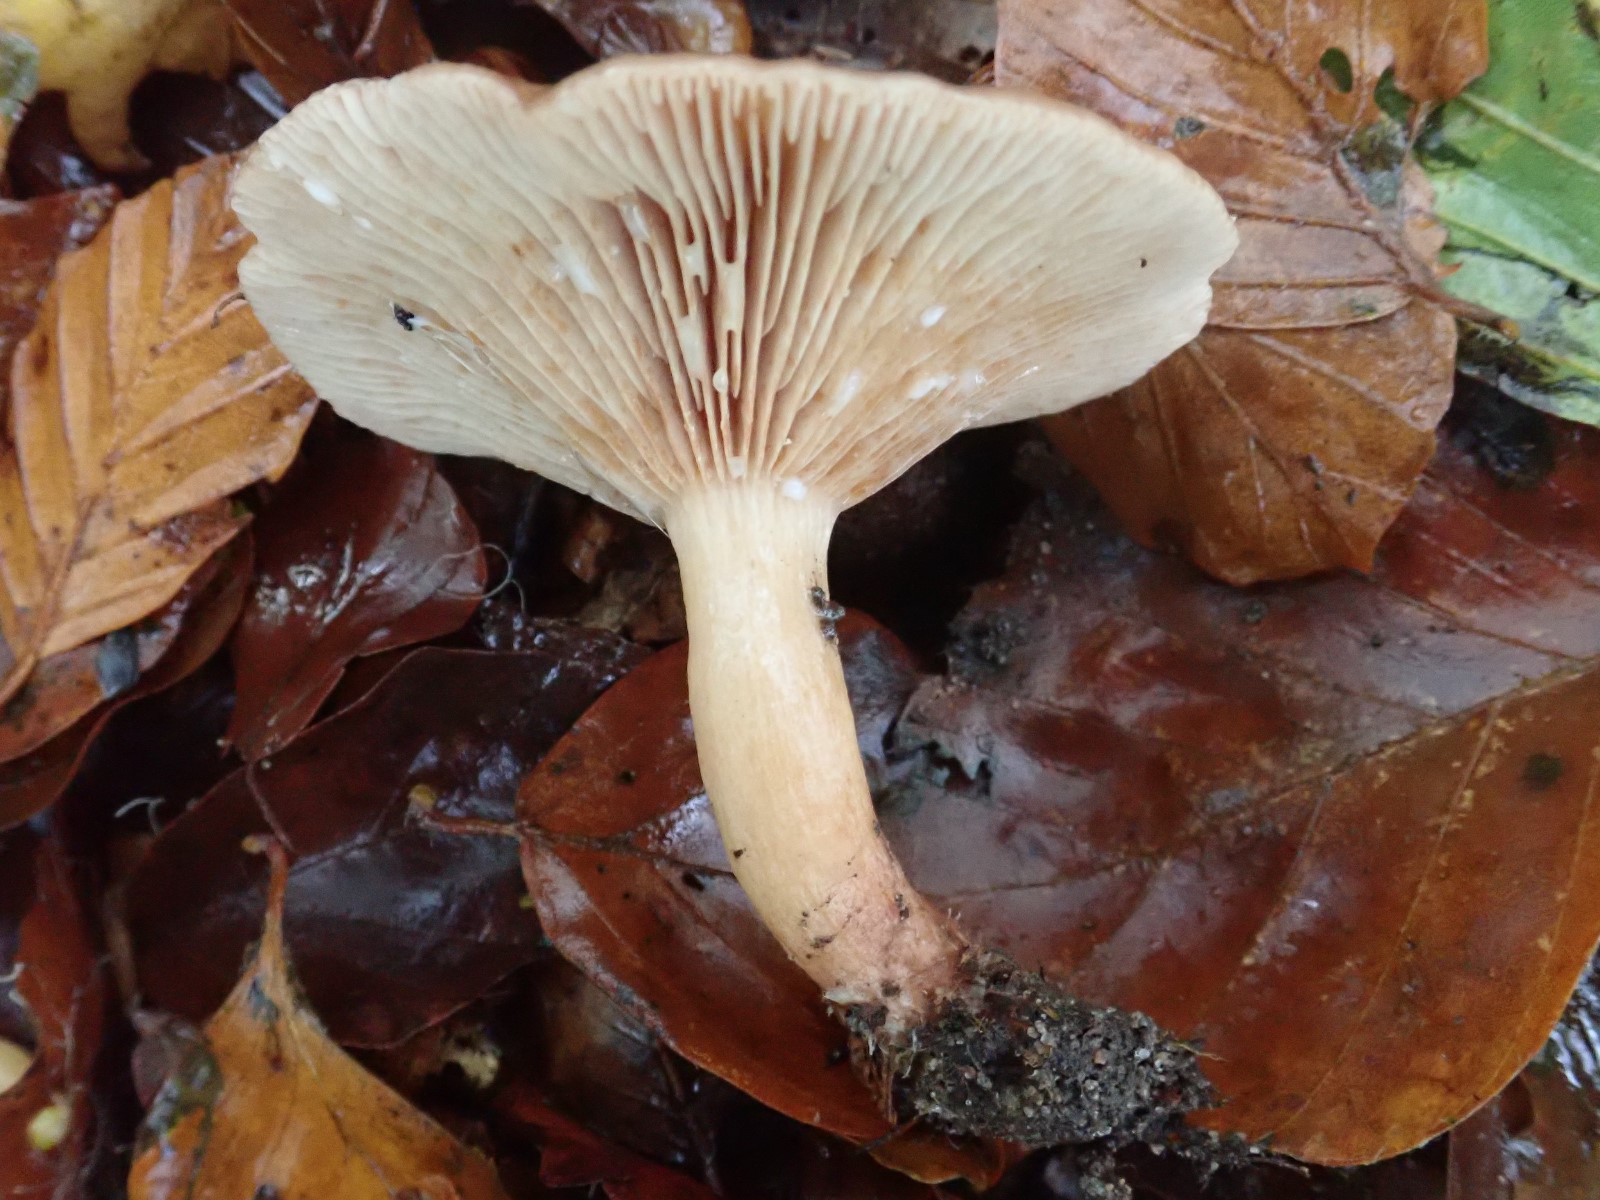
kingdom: Fungi
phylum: Basidiomycota
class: Agaricomycetes
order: Russulales
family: Russulaceae
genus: Lactarius
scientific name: Lactarius subdulcis
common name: sødlig mælkehat
